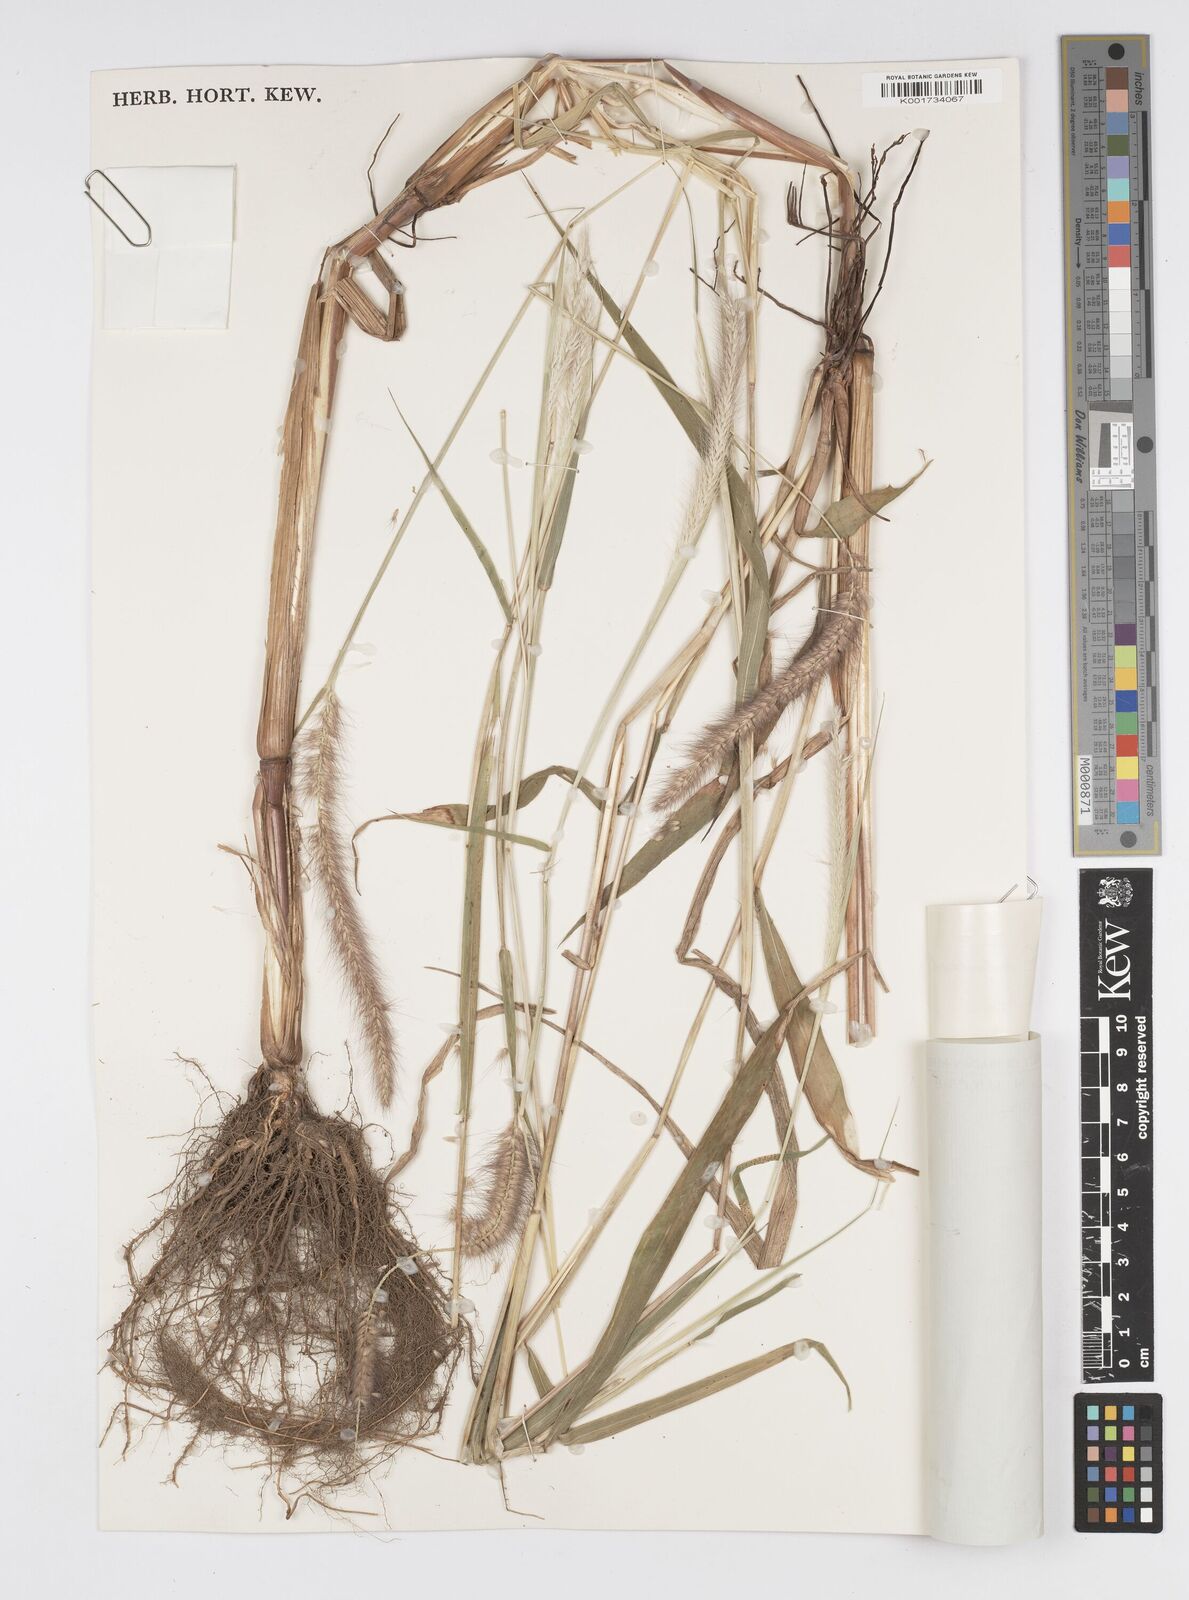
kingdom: Plantae
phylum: Tracheophyta
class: Liliopsida
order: Poales
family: Poaceae
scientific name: Poaceae
